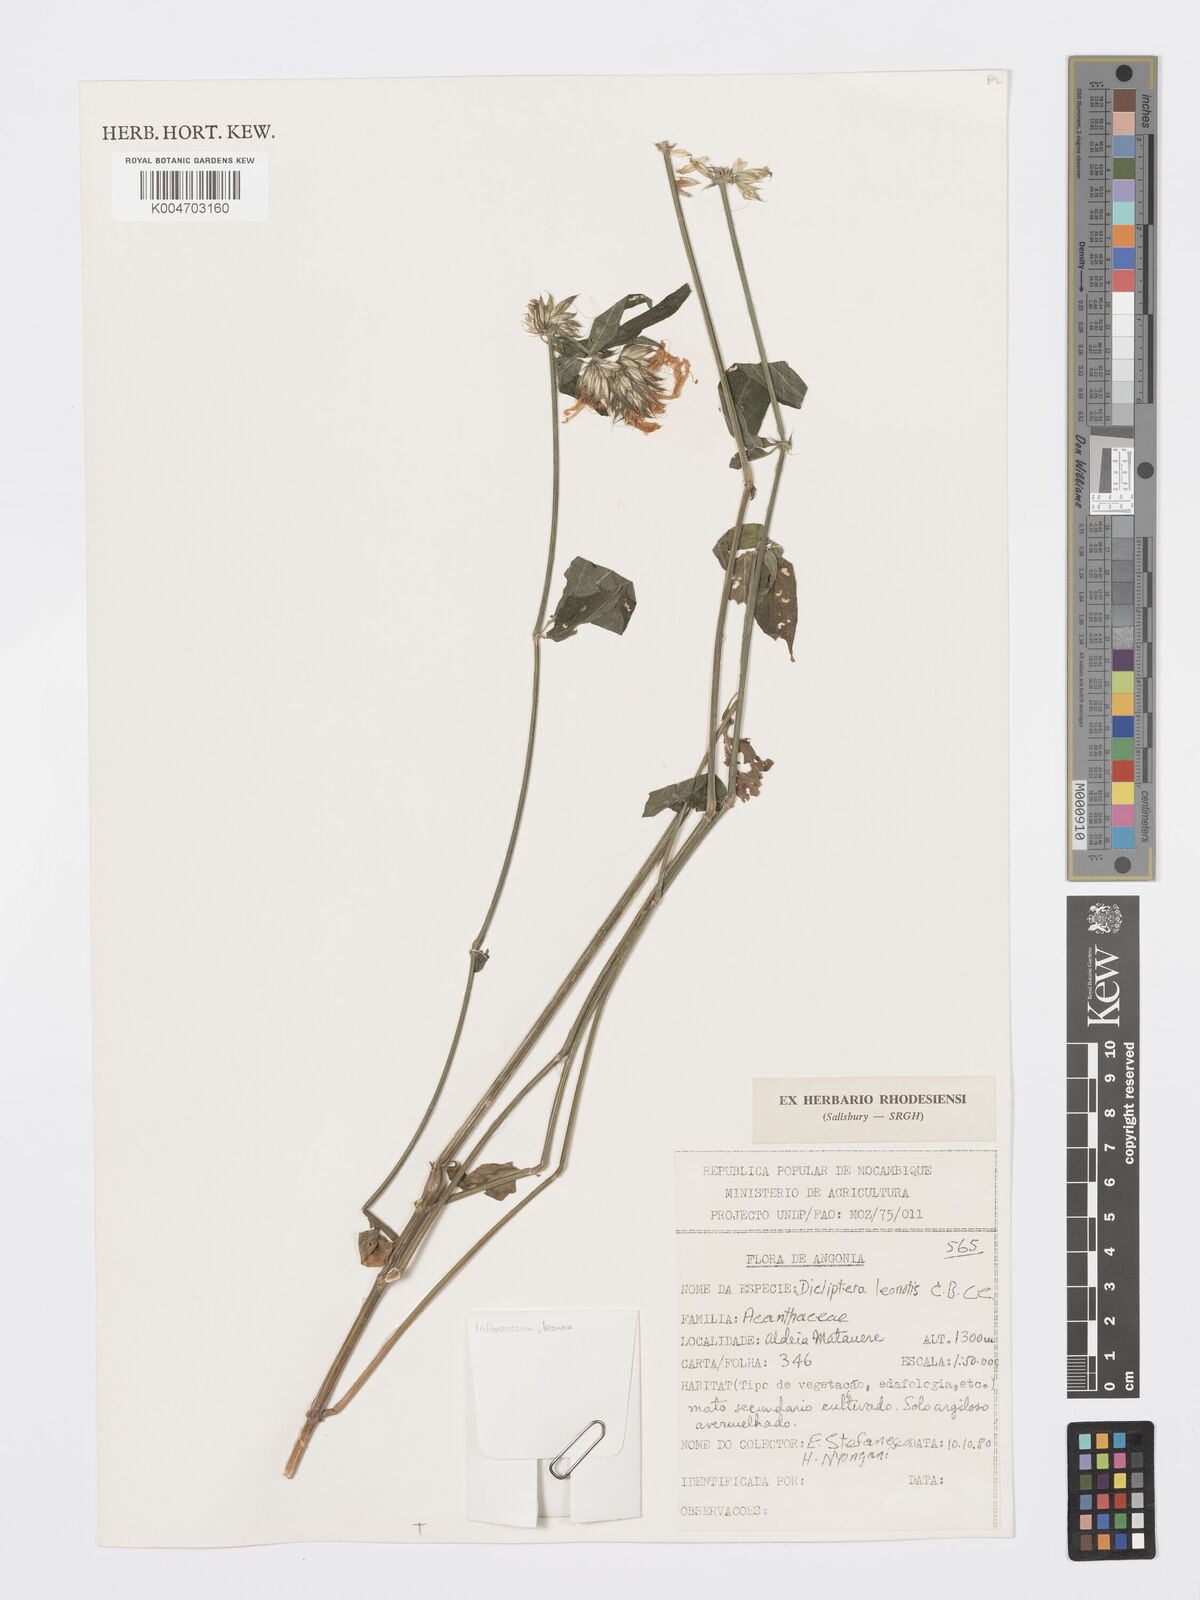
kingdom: Plantae
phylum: Tracheophyta
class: Magnoliopsida
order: Lamiales
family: Acanthaceae
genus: Dicliptera
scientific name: Dicliptera clinopodia
